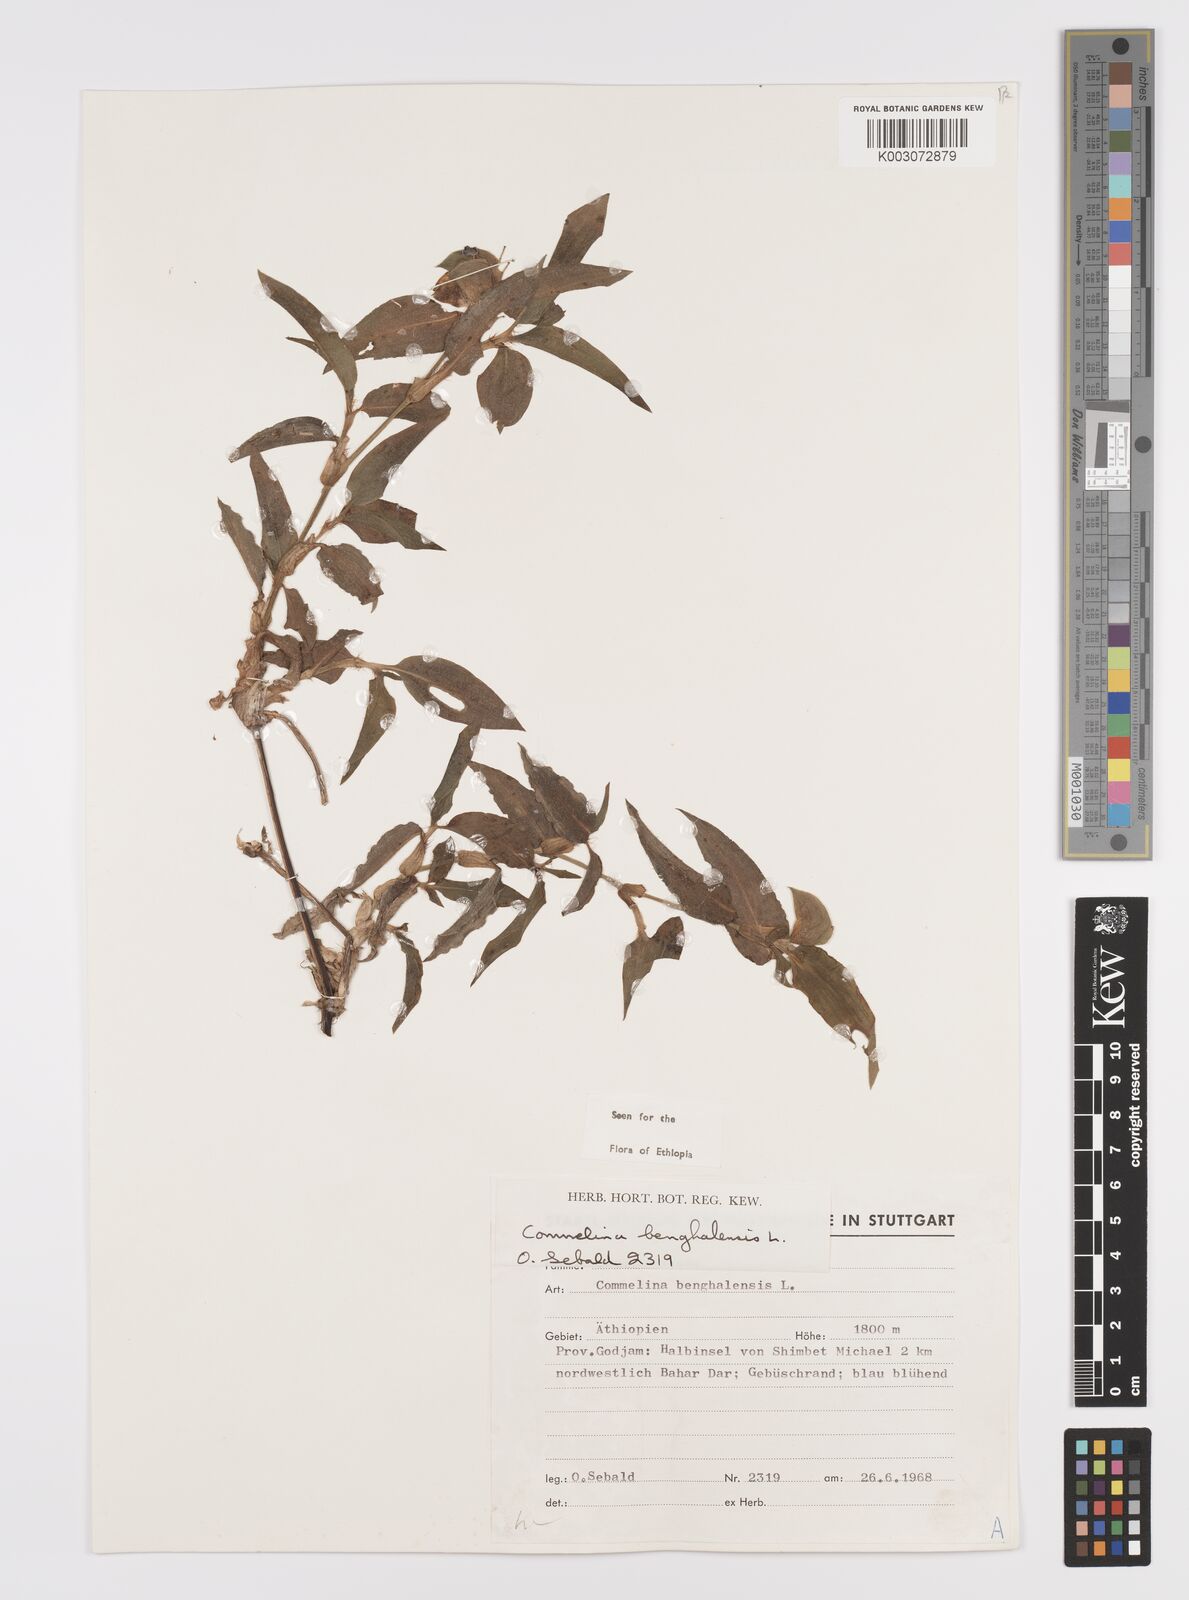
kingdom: Plantae
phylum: Tracheophyta
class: Liliopsida
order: Commelinales
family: Commelinaceae
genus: Commelina
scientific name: Commelina benghalensis
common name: Jio
